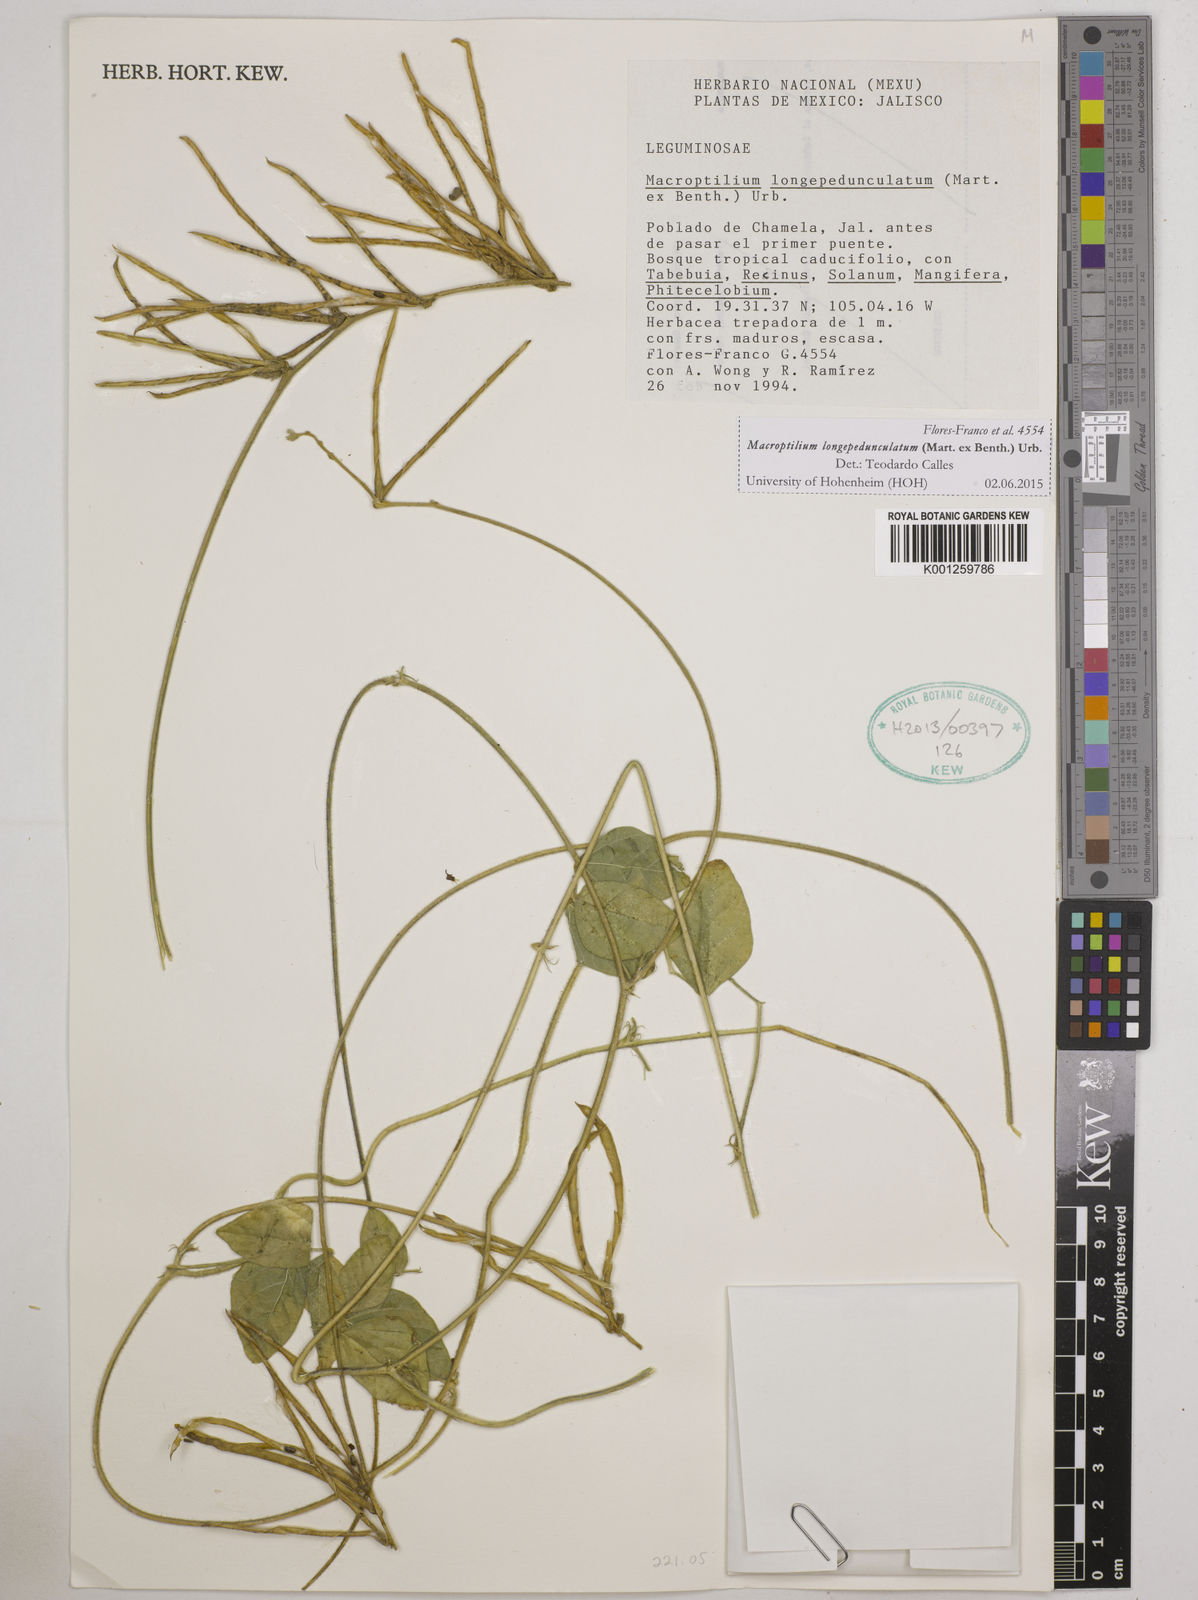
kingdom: Plantae
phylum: Tracheophyta
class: Magnoliopsida
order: Fabales
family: Fabaceae
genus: Macroptilium
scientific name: Macroptilium longepedunculatum
